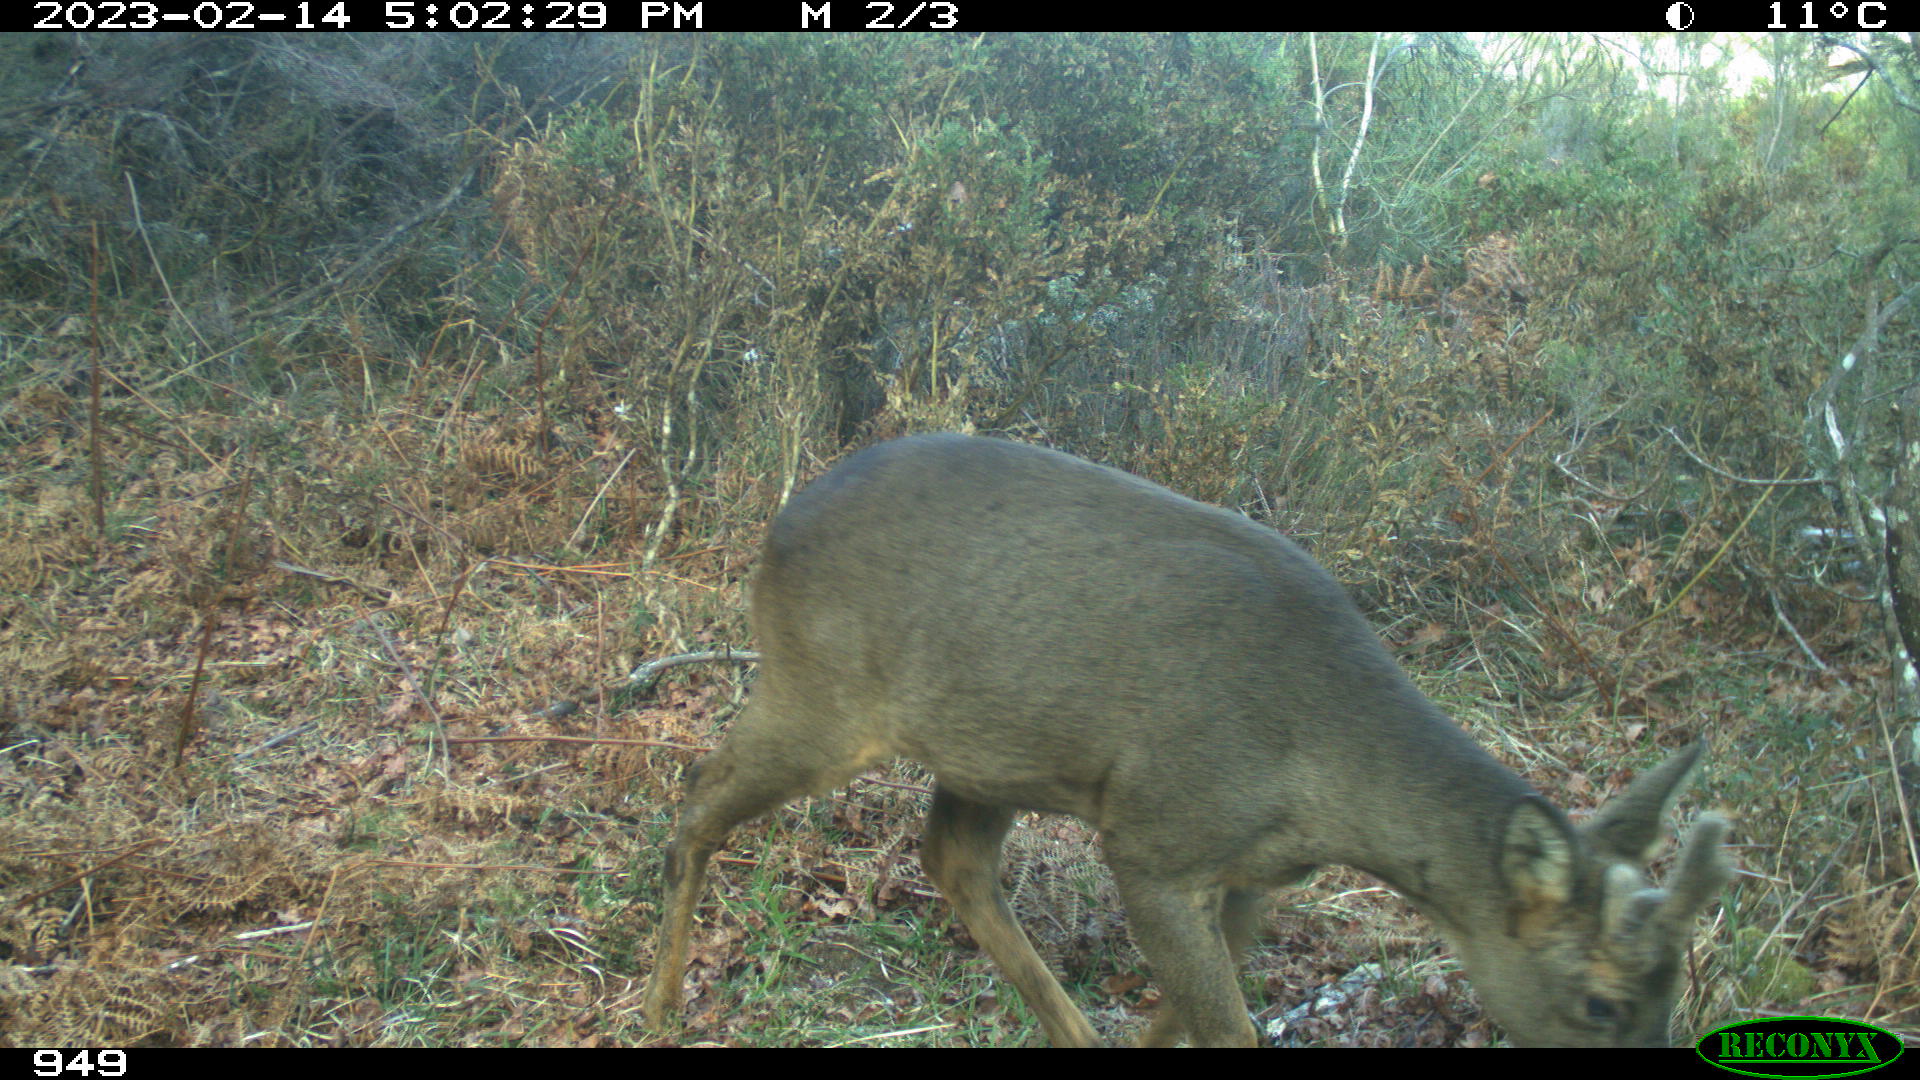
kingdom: Animalia
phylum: Chordata
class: Mammalia
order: Artiodactyla
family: Cervidae
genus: Capreolus
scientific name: Capreolus capreolus
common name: Western roe deer
